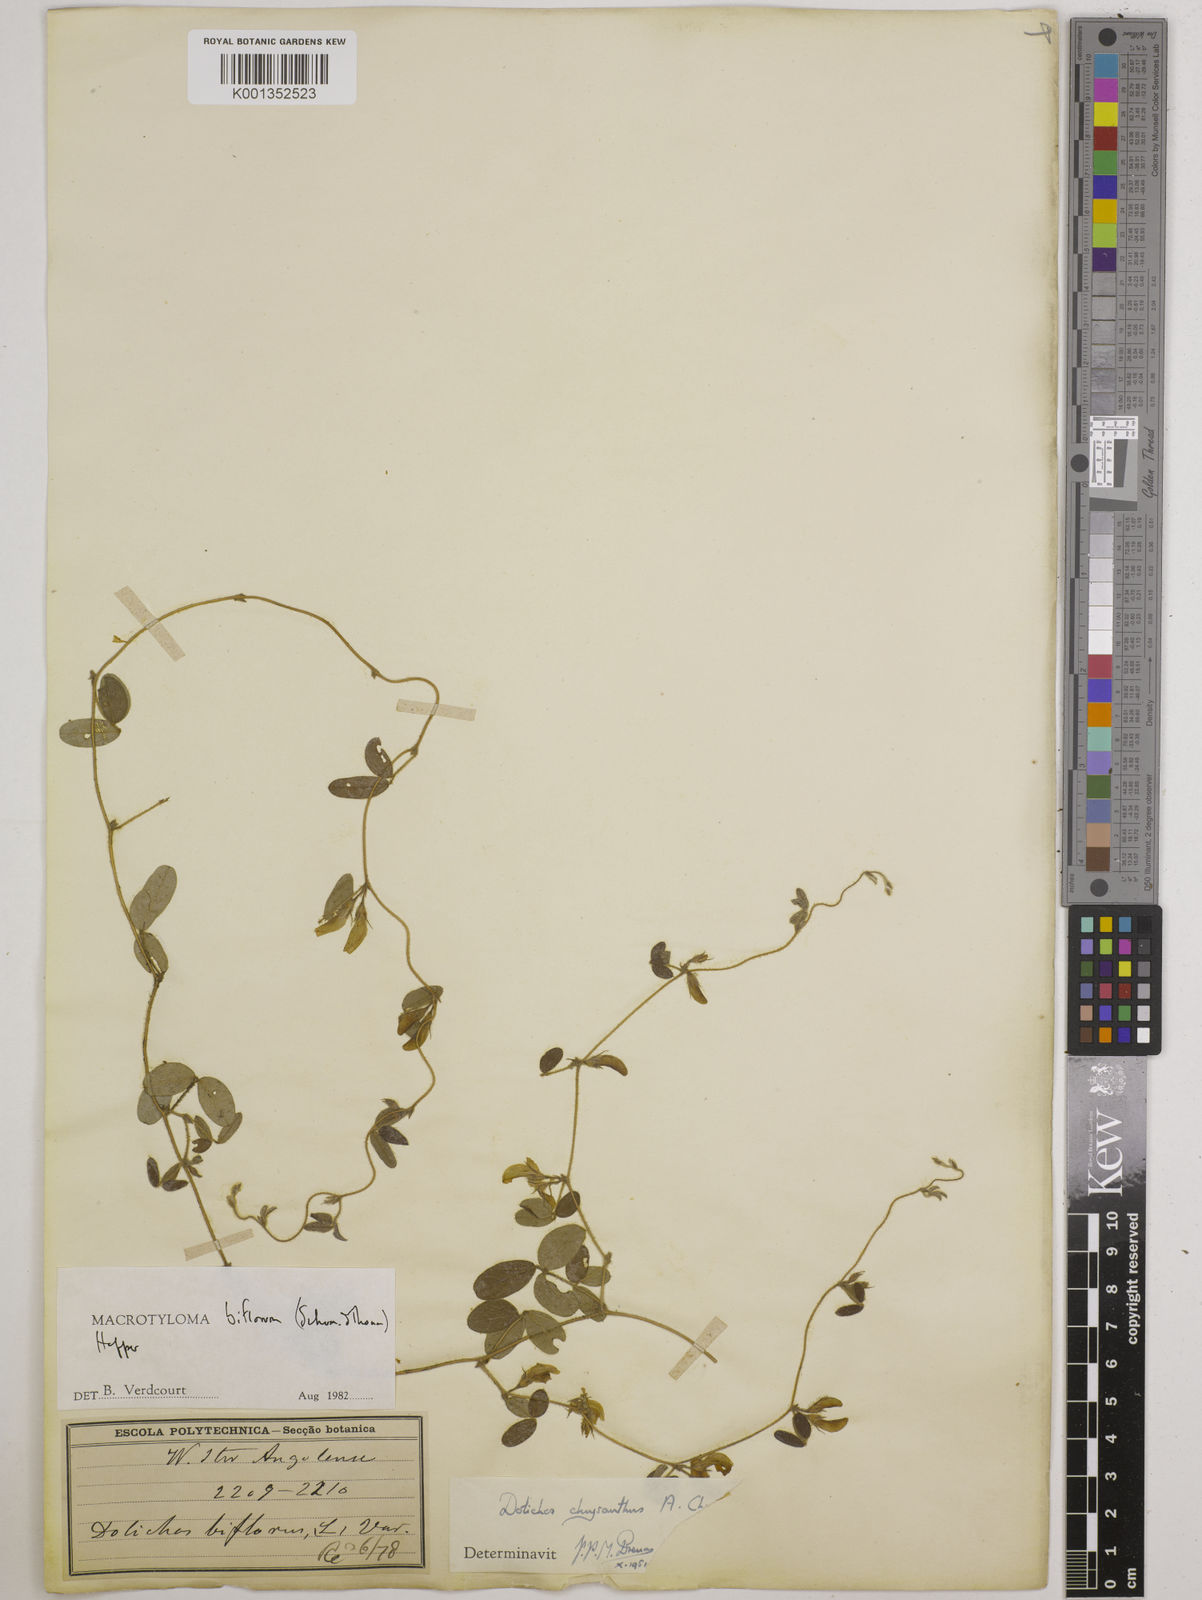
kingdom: Plantae
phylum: Tracheophyta
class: Magnoliopsida
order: Fabales
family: Fabaceae
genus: Macrotyloma
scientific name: Macrotyloma biflorum
